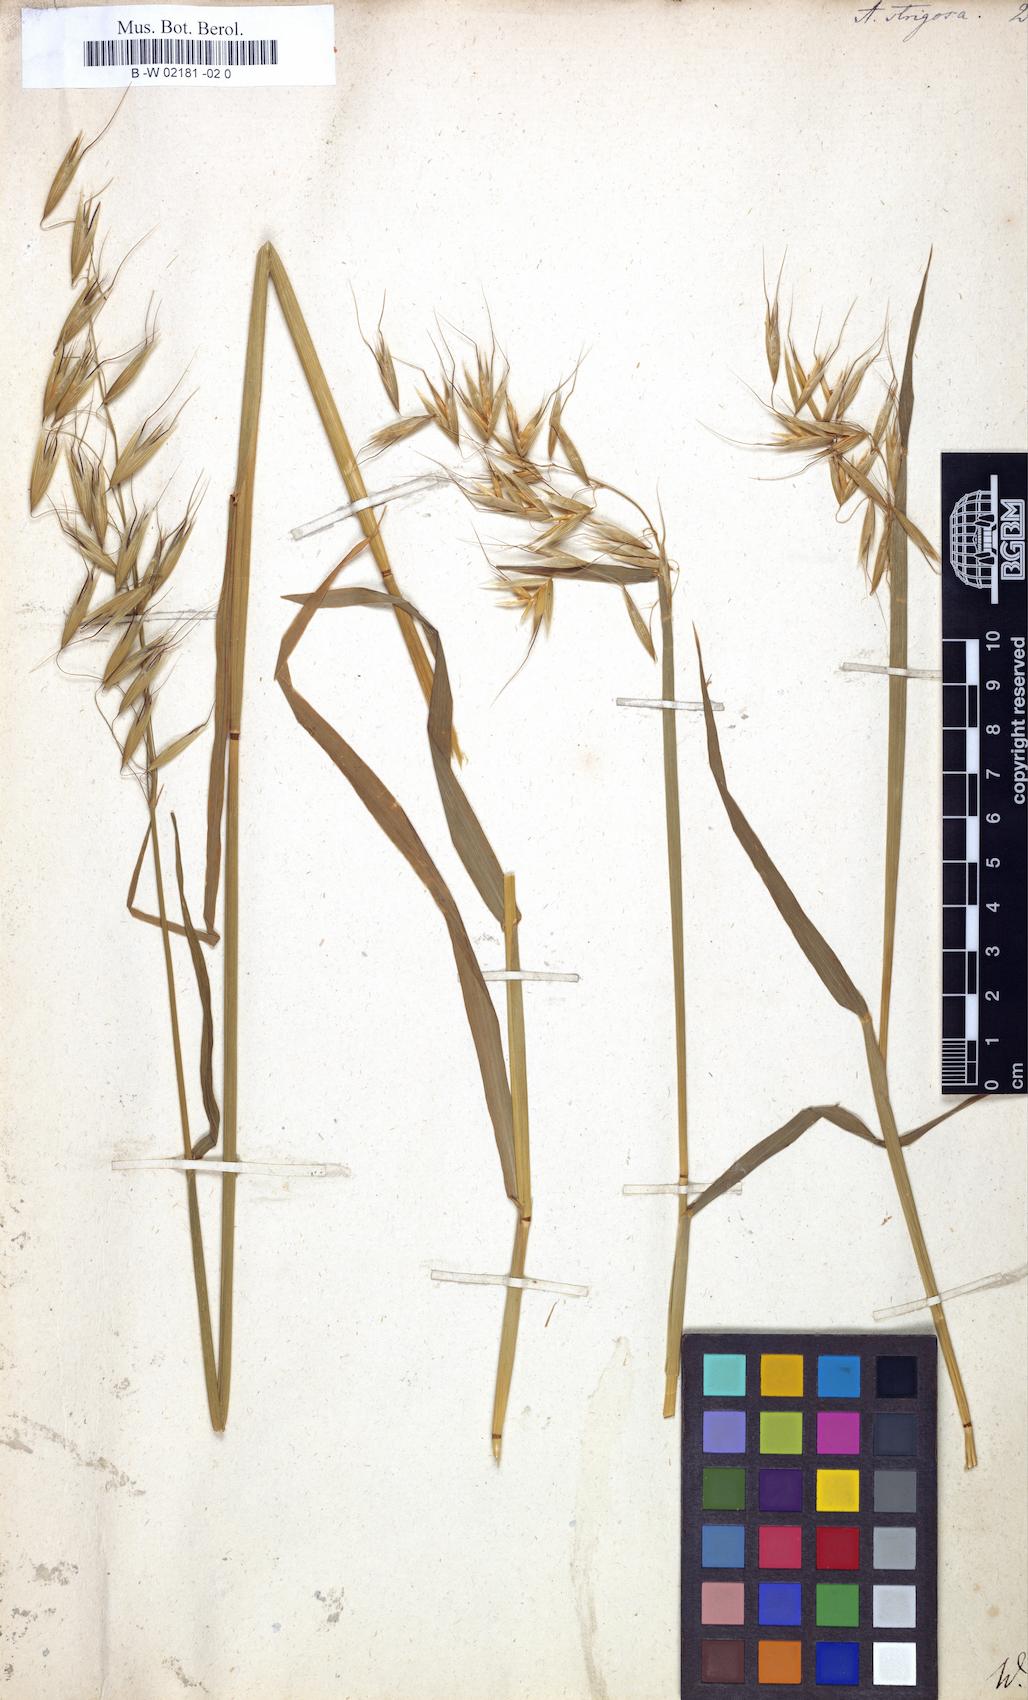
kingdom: Plantae
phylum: Tracheophyta
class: Liliopsida
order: Poales
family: Poaceae
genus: Avena
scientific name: Avena strigosa
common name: Bristle oat
